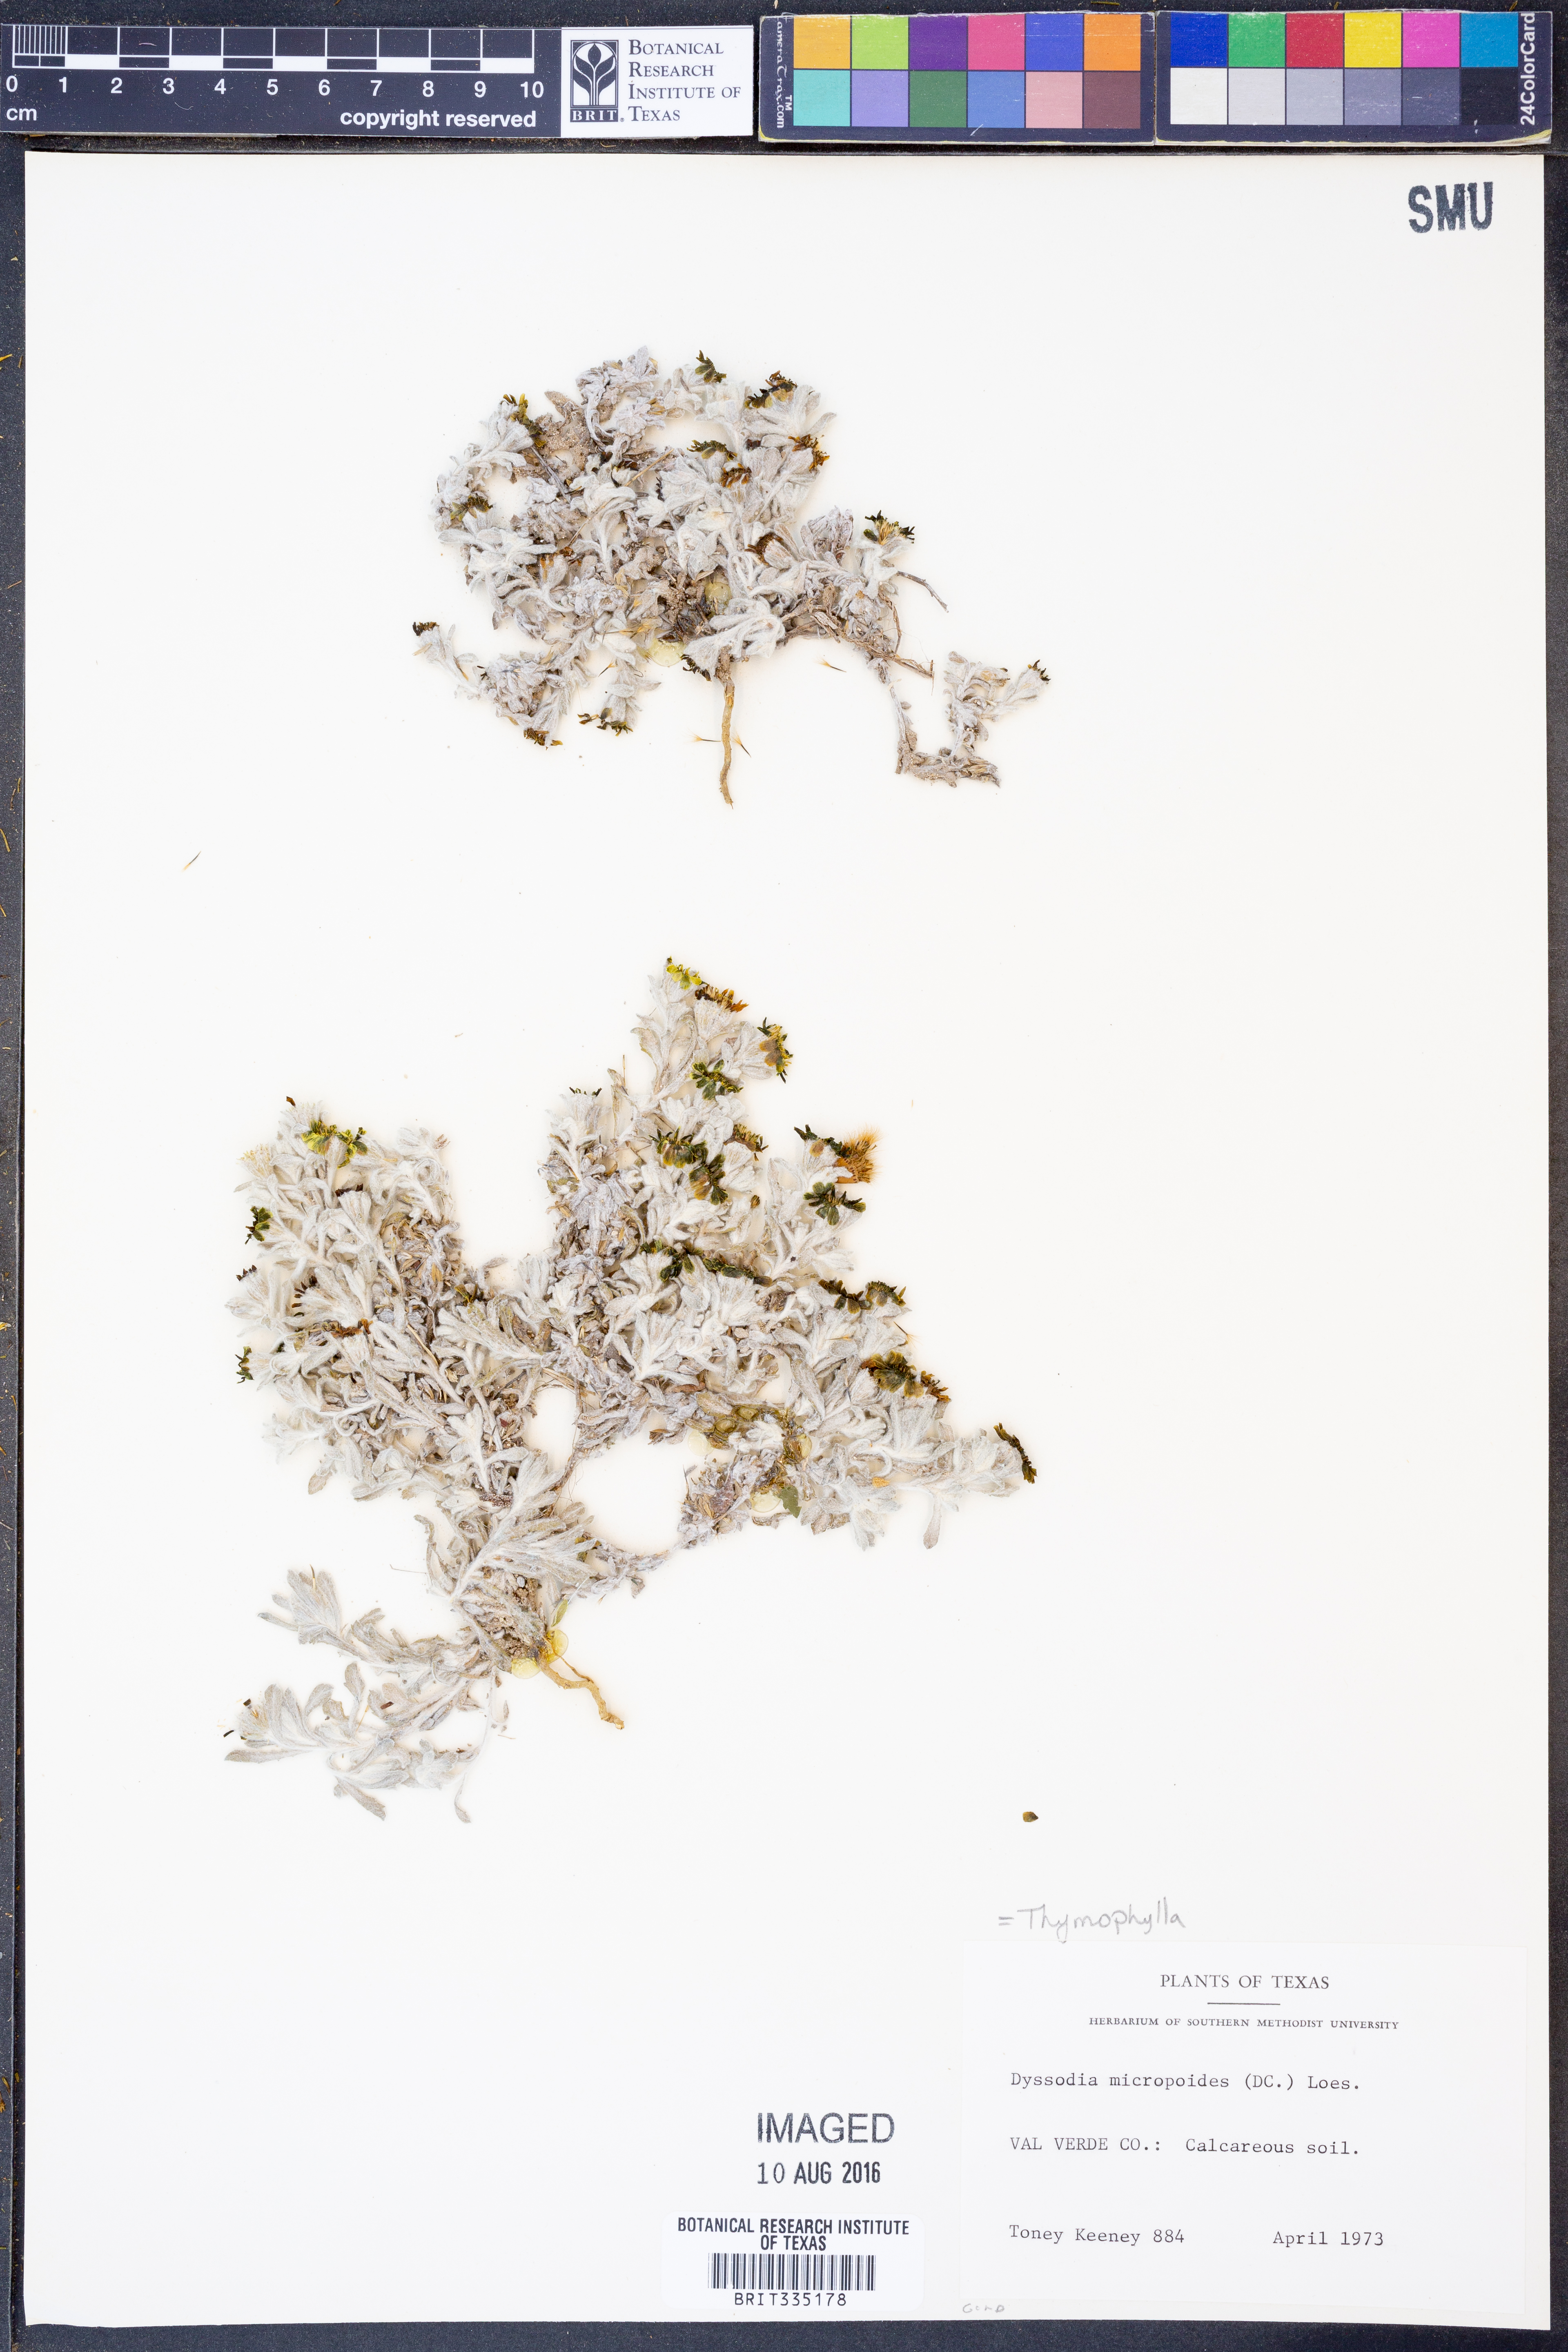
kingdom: Plantae
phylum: Tracheophyta
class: Magnoliopsida
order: Asterales
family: Asteraceae
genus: Thymophylla
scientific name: Thymophylla micropoides
